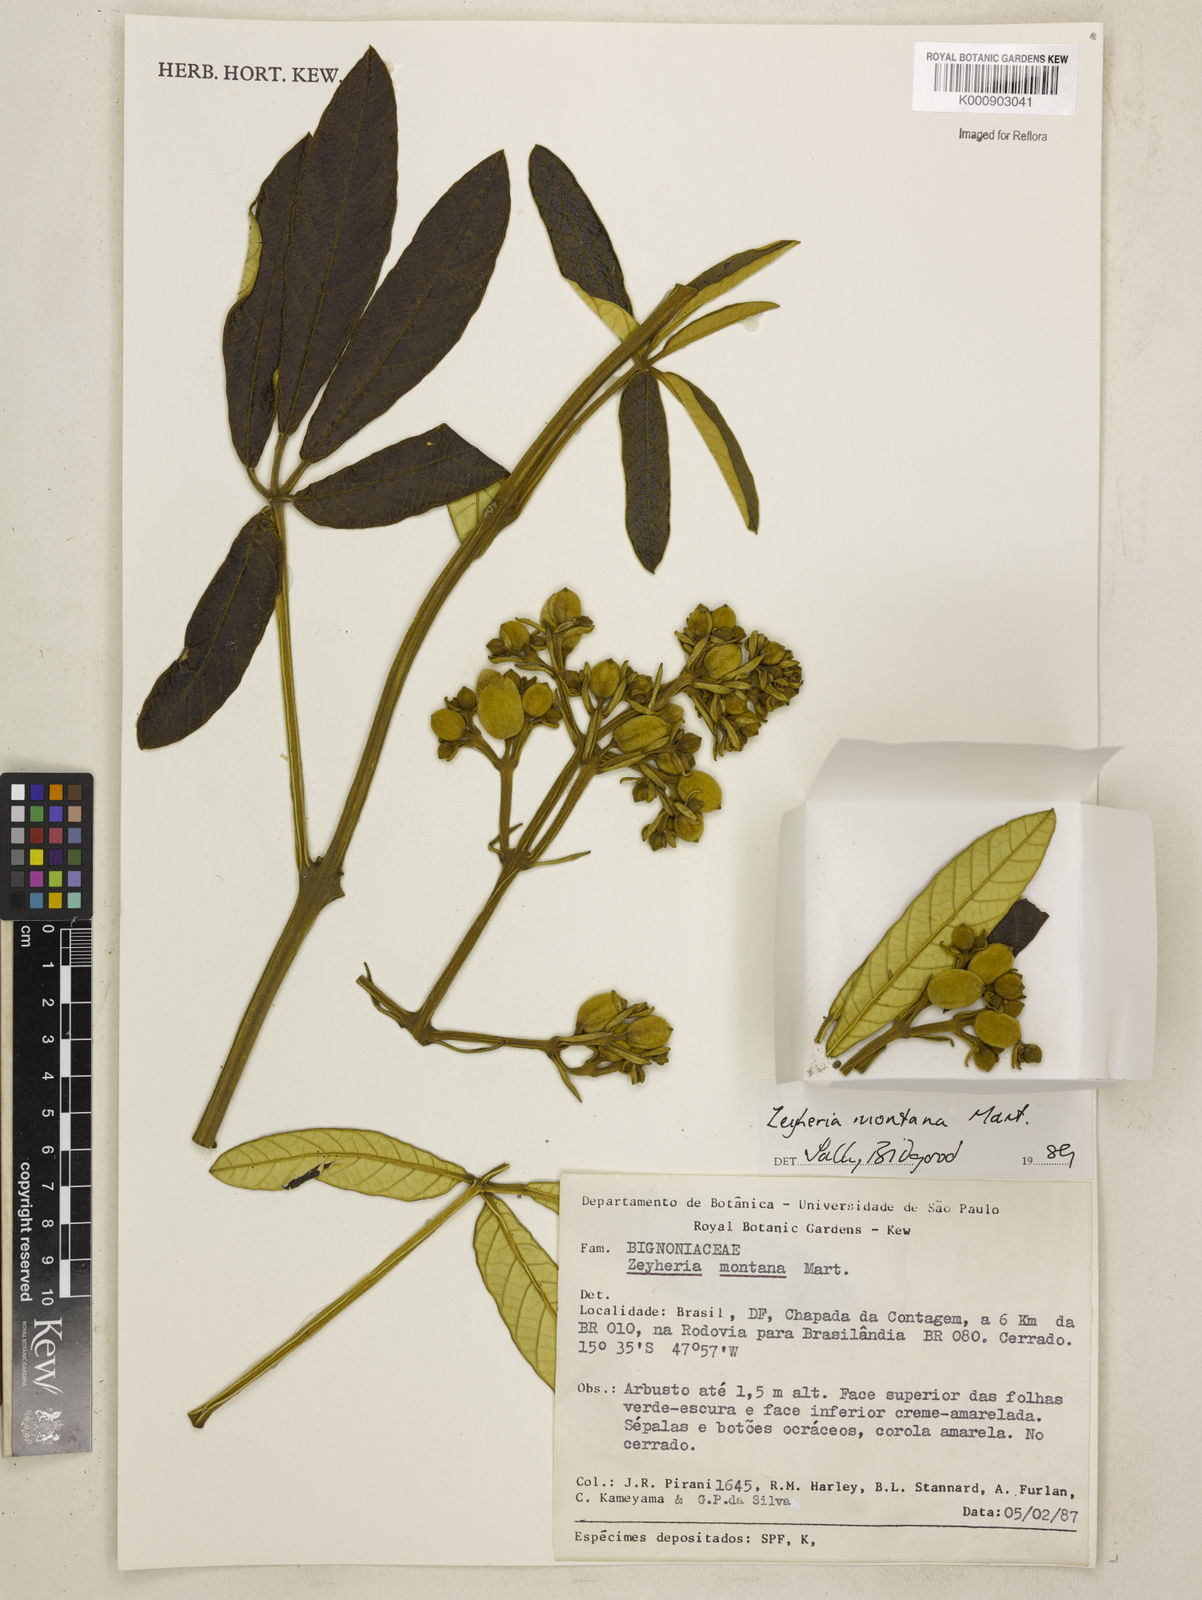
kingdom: Plantae
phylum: Tracheophyta
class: Magnoliopsida
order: Lamiales
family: Bignoniaceae
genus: Zeyheria
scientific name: Zeyheria
